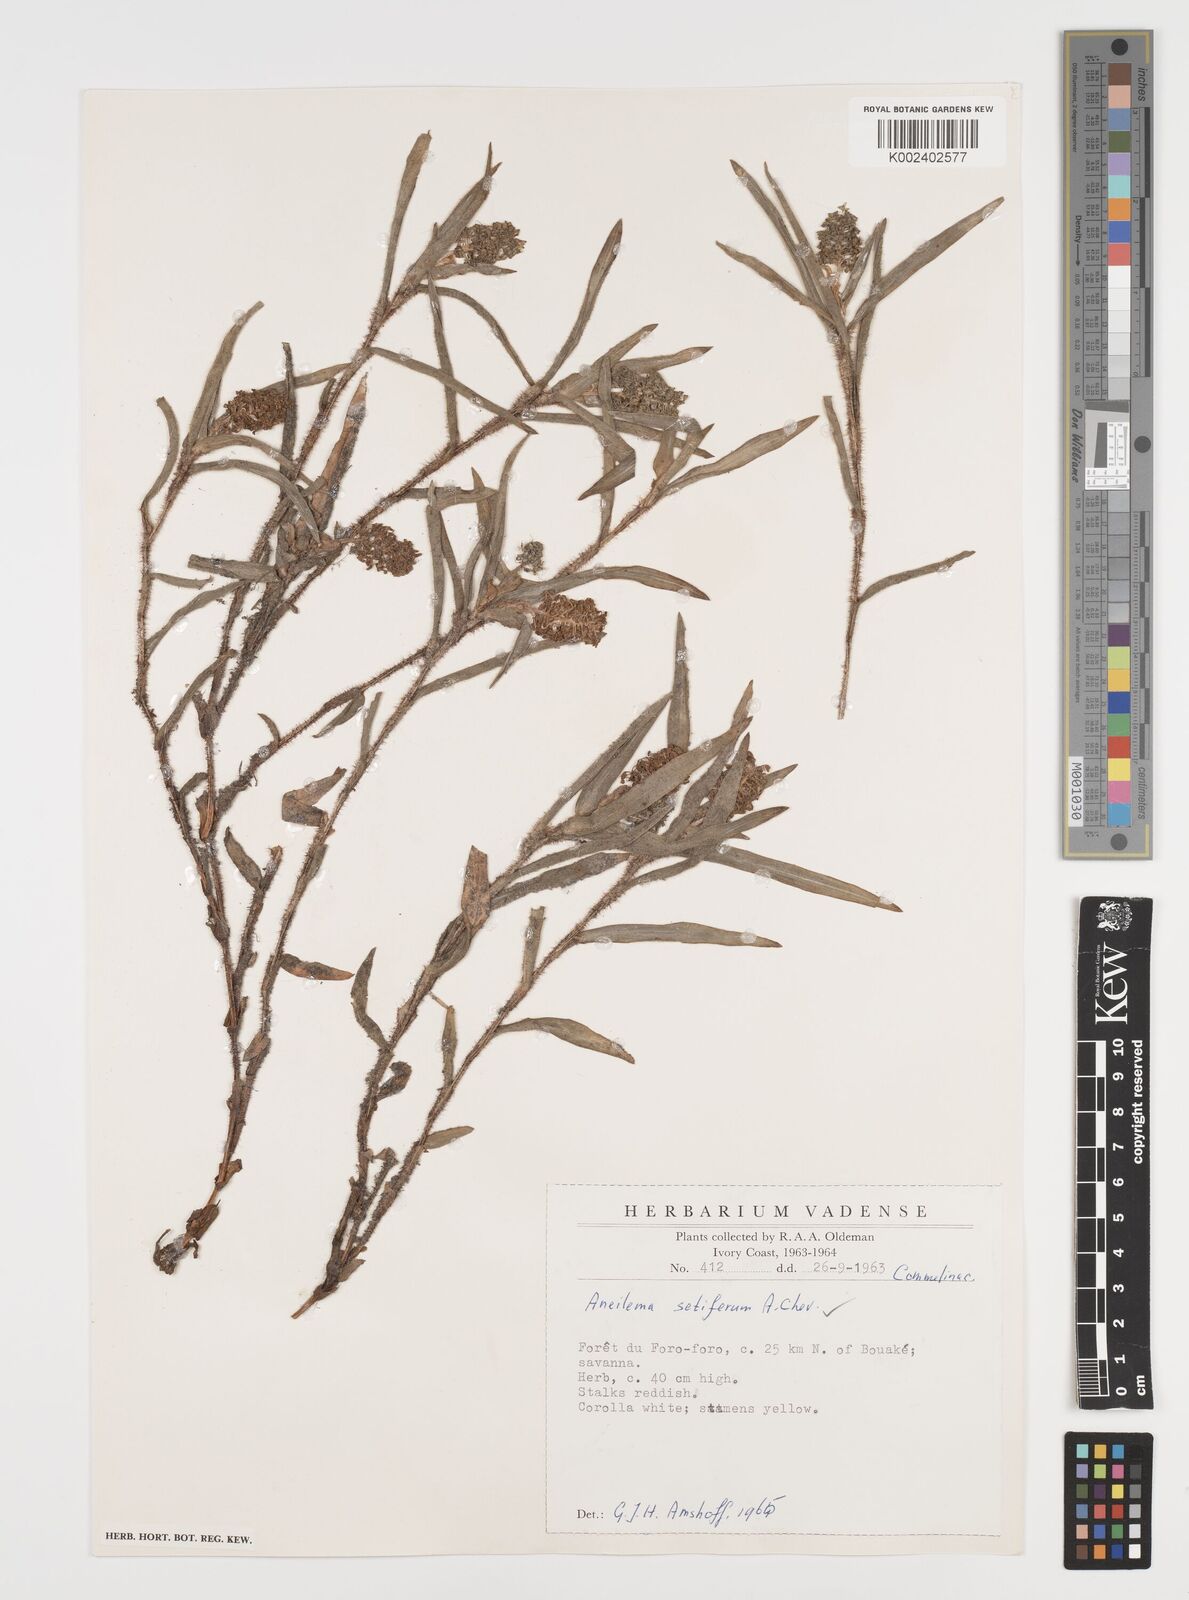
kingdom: Plantae
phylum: Tracheophyta
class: Liliopsida
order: Commelinales
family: Commelinaceae
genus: Aneilema
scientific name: Aneilema setiferum
